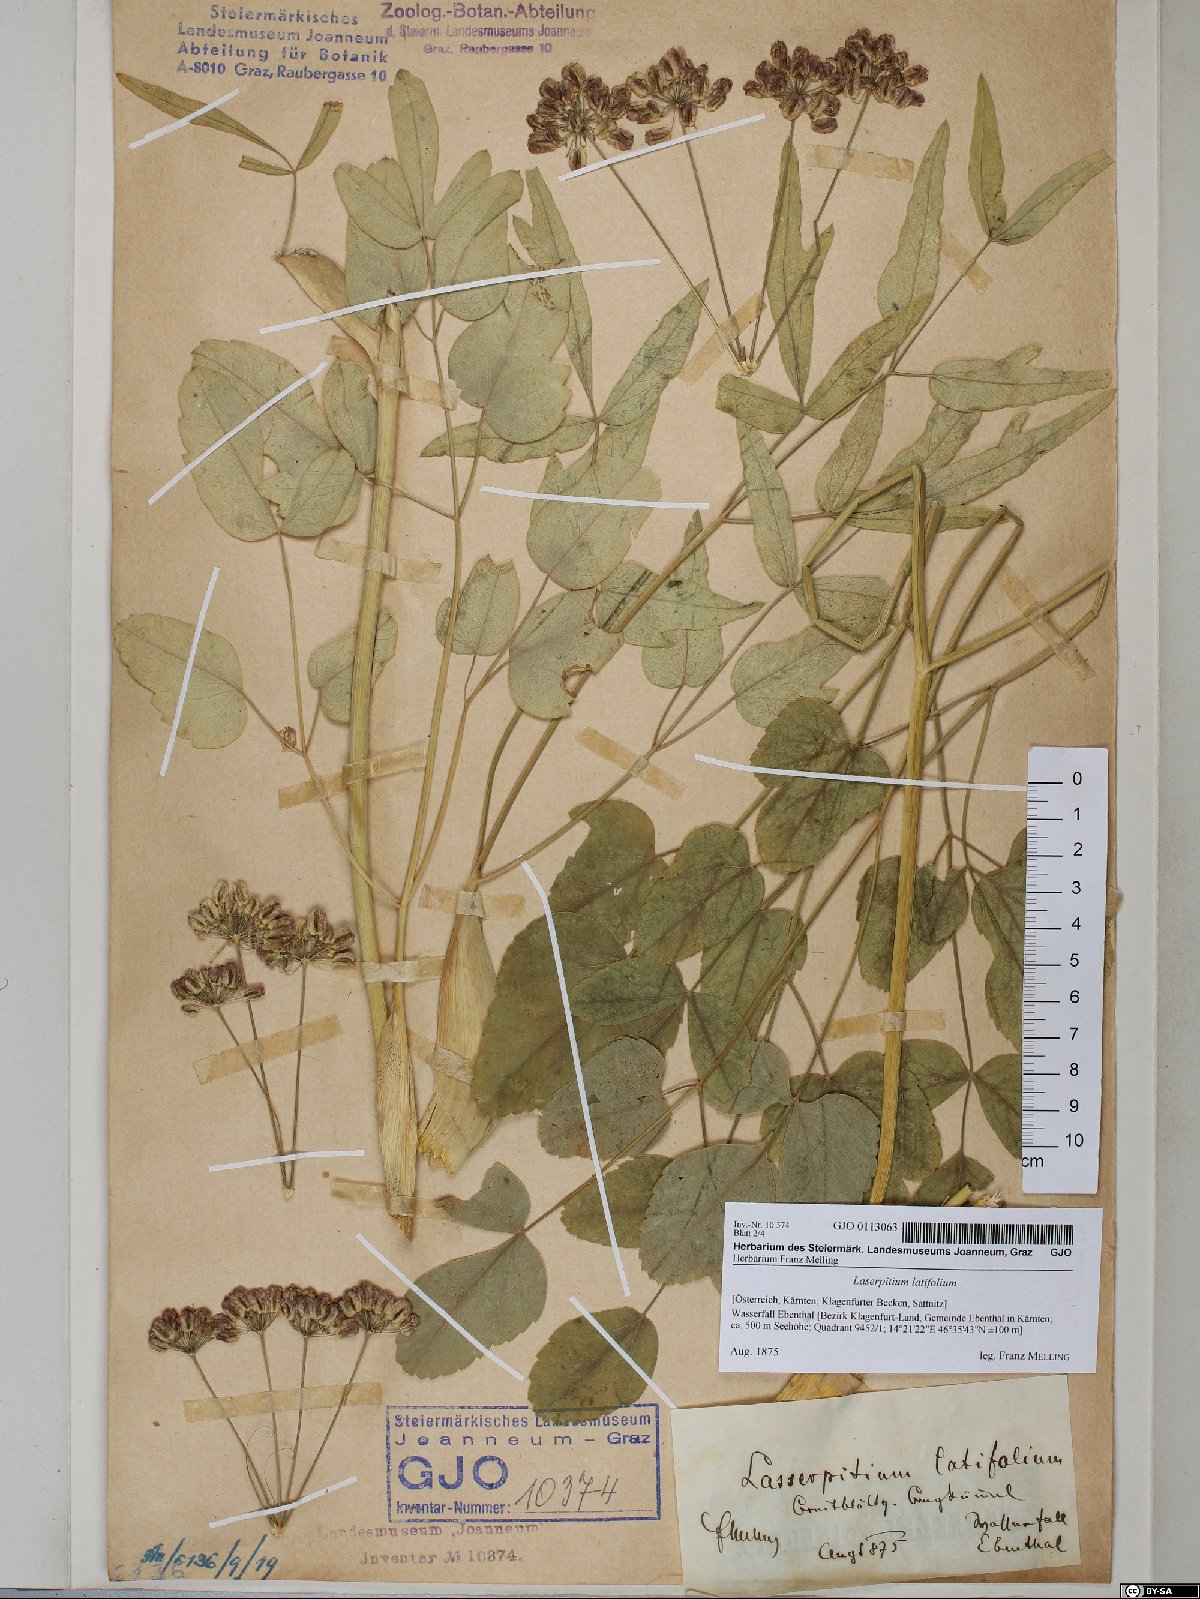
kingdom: Plantae
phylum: Tracheophyta
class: Magnoliopsida
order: Apiales
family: Apiaceae
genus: Laserpitium
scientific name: Laserpitium latifolium
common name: Broadleaf sermountain
